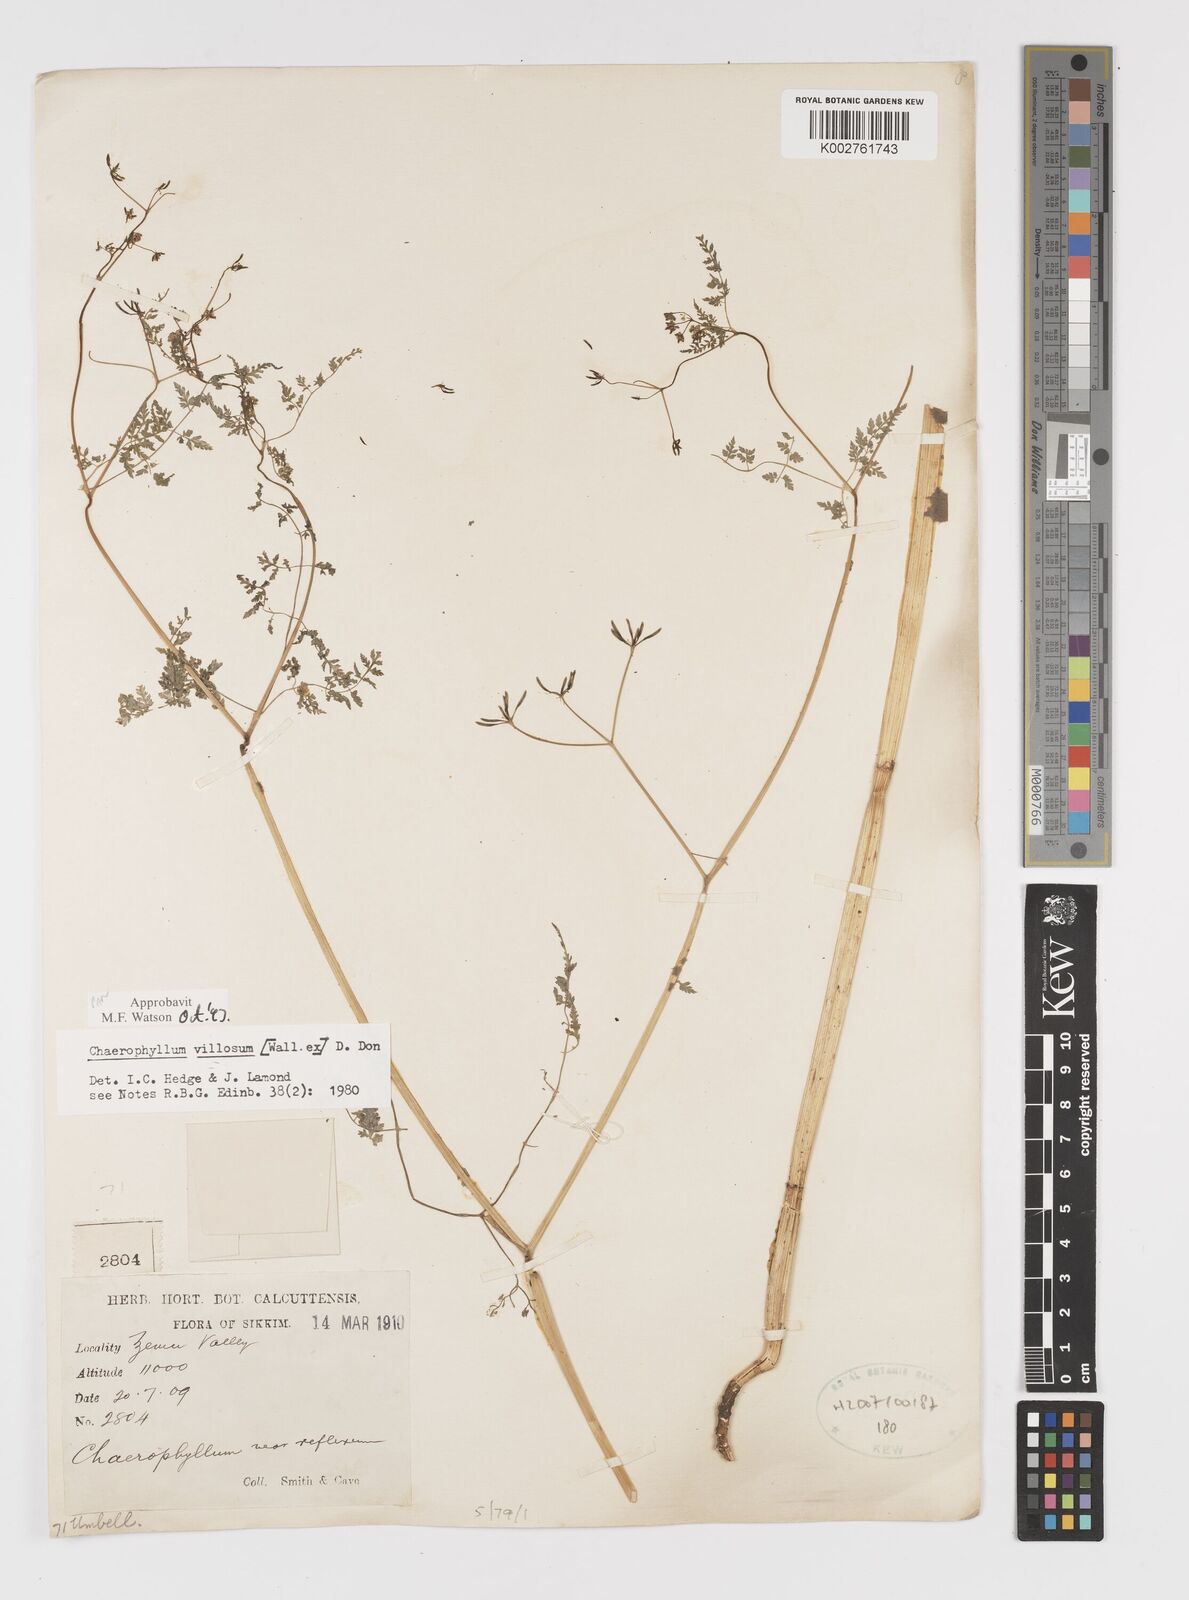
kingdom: Plantae
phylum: Tracheophyta
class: Magnoliopsida
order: Apiales
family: Apiaceae
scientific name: Apiaceae
